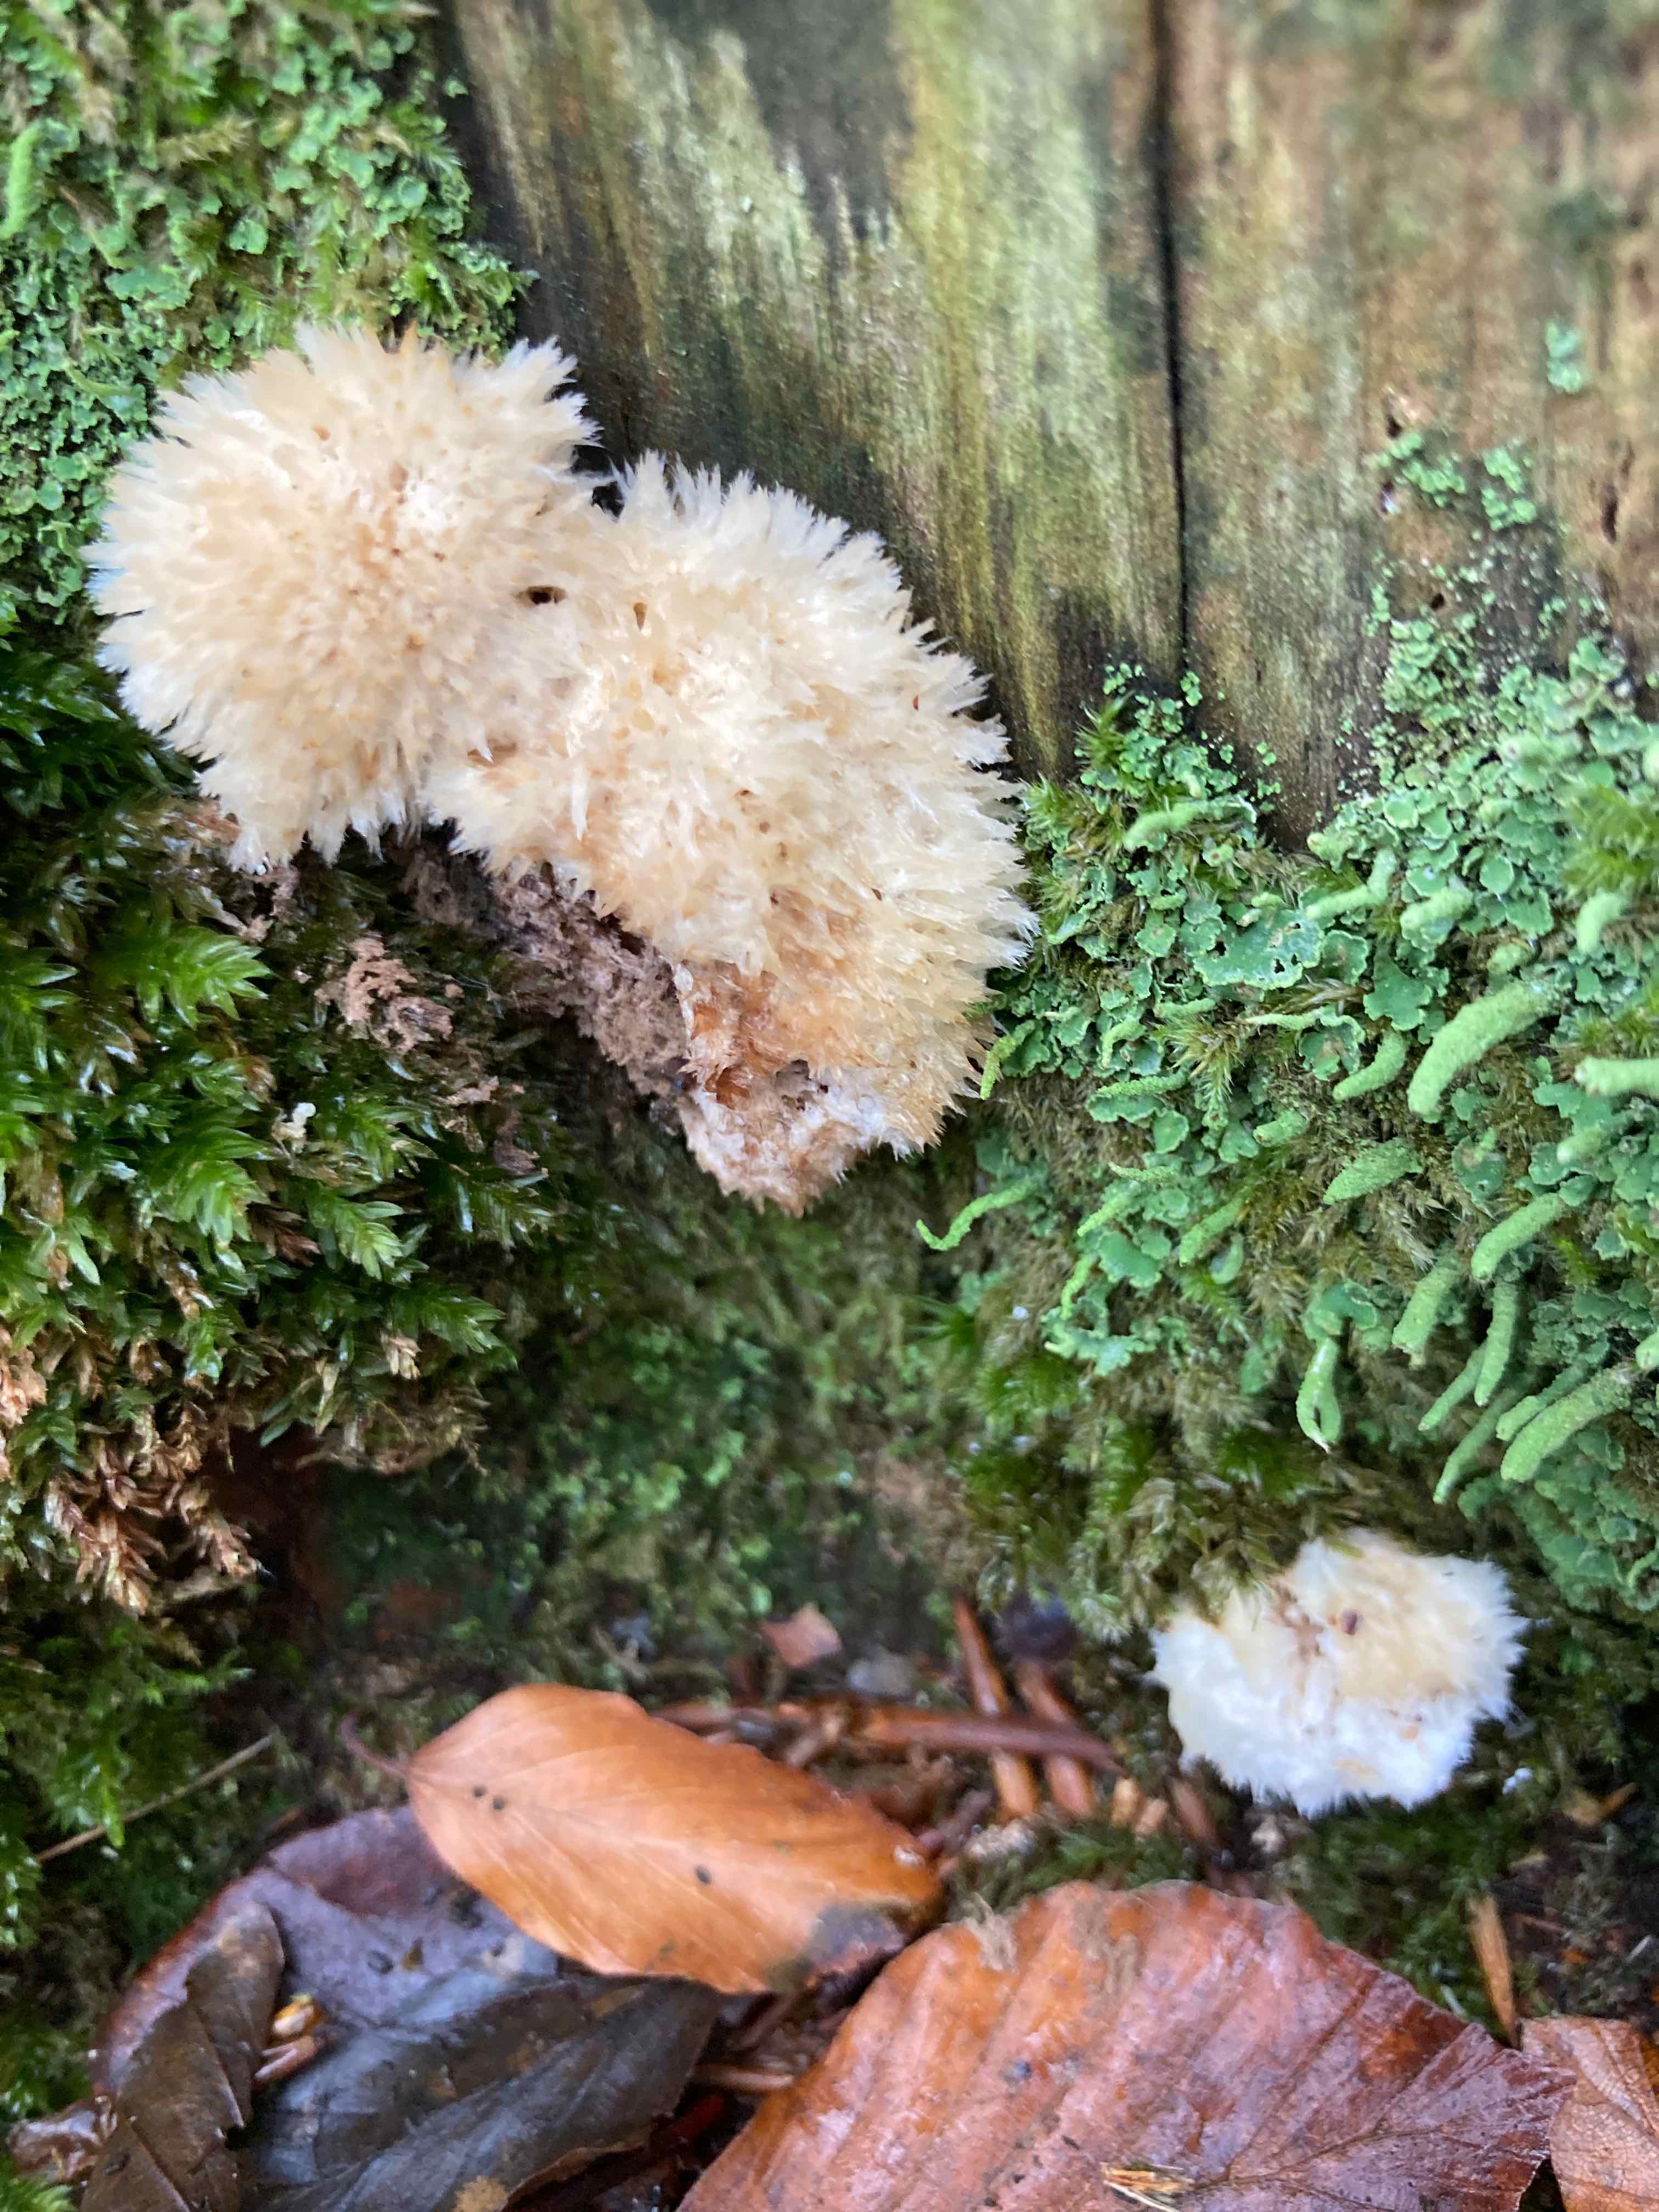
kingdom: Fungi
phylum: Basidiomycota
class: Agaricomycetes
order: Polyporales
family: Dacryobolaceae
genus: Postia
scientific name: Postia ptychogaster
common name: støvende kødporesvamp
